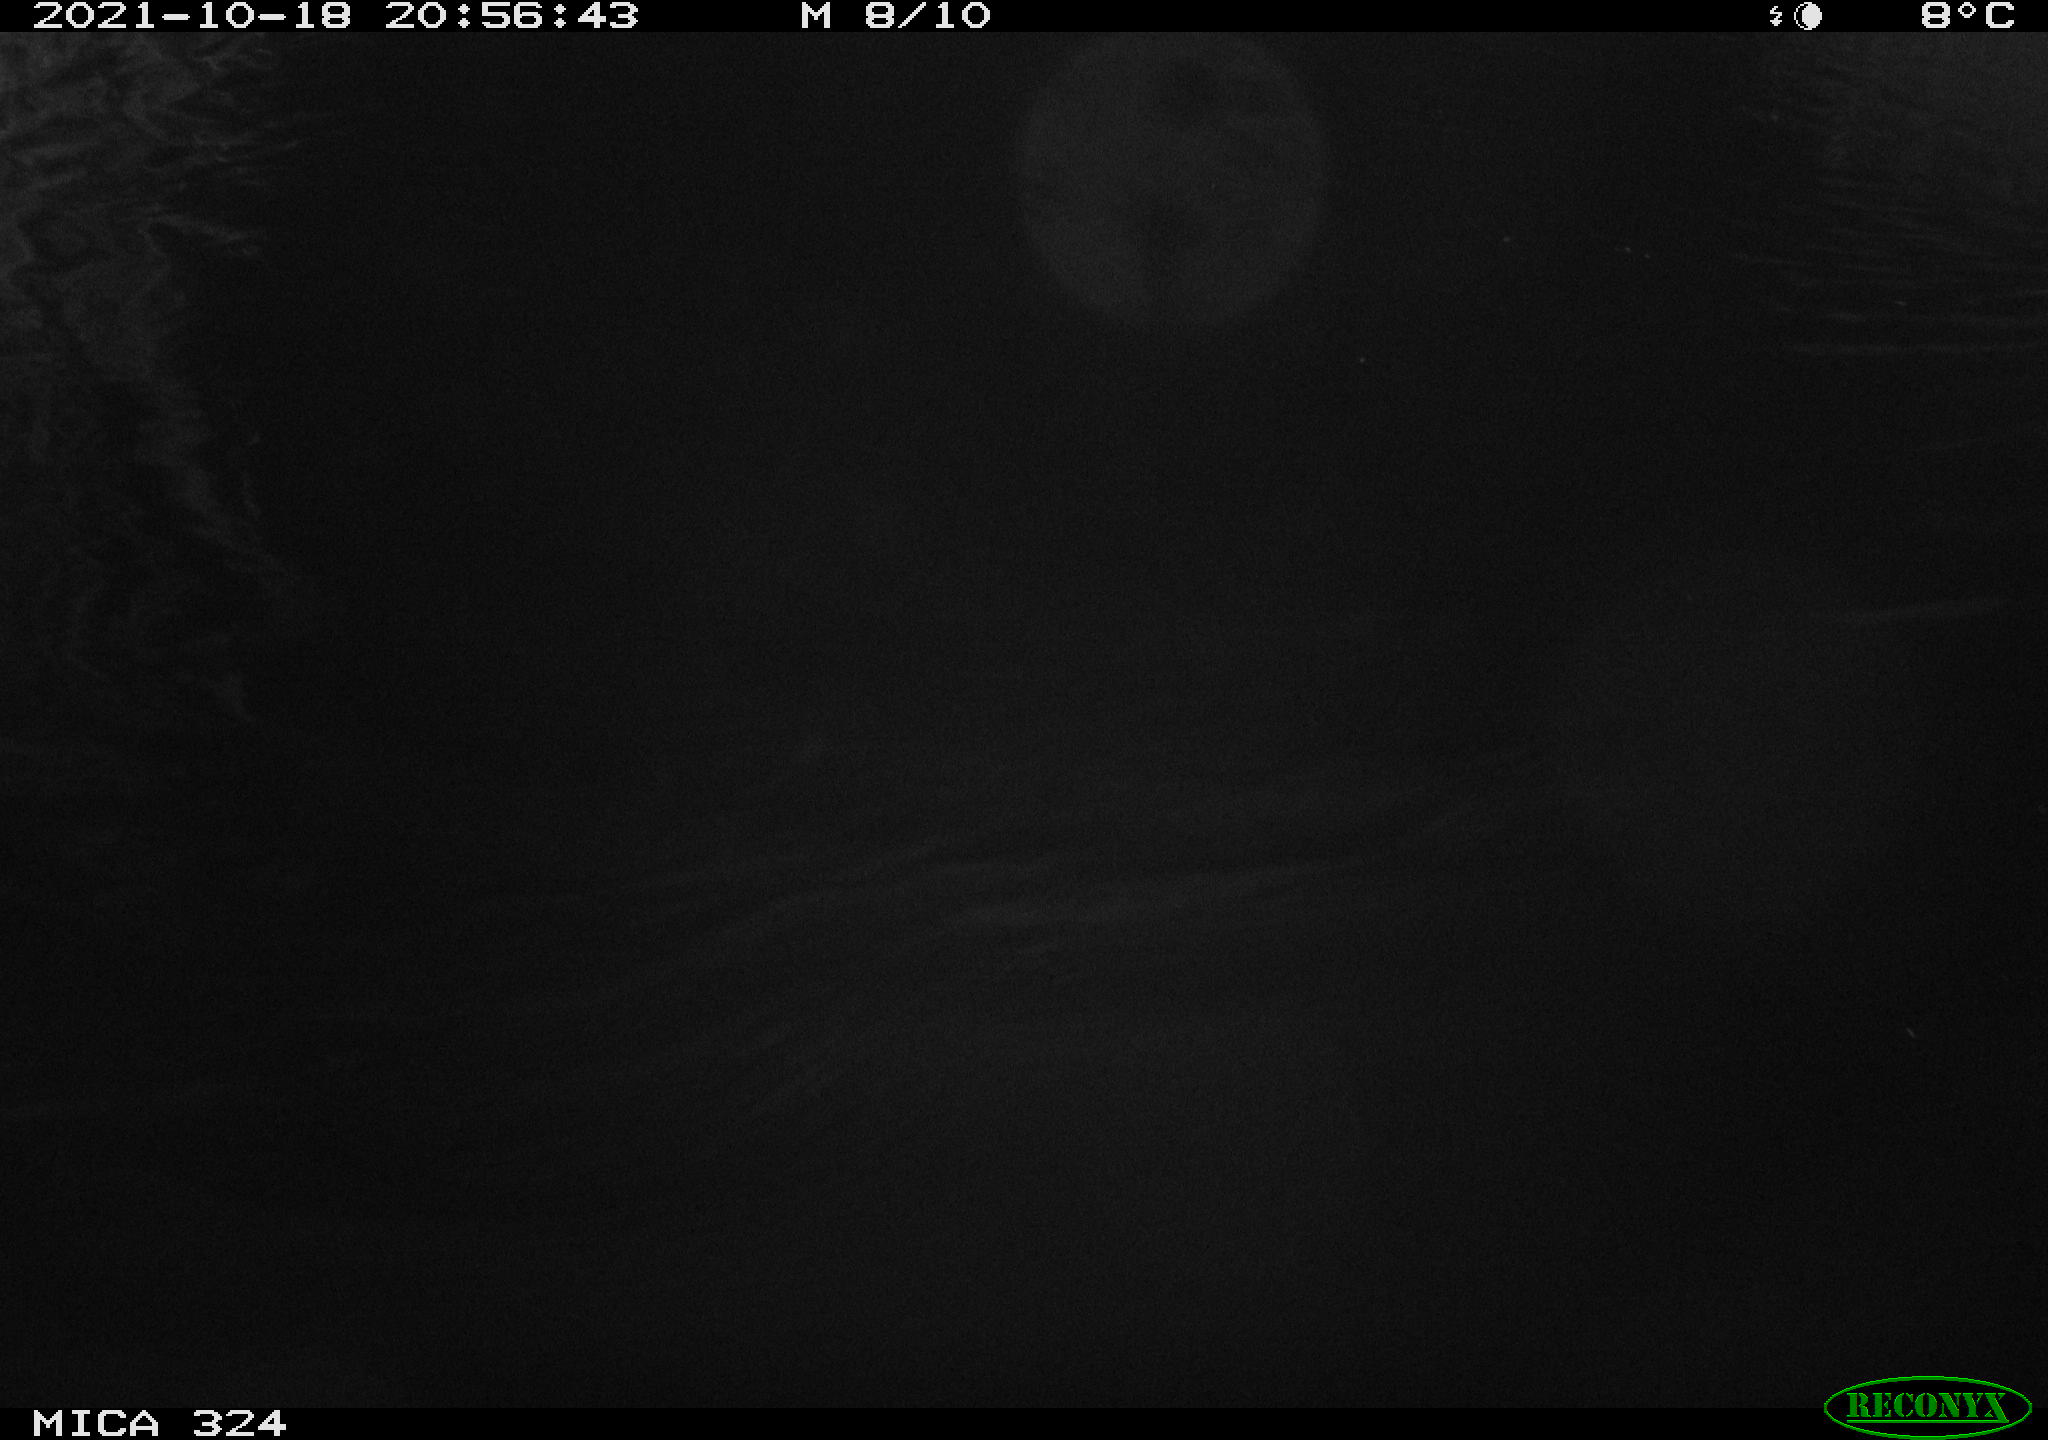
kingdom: Animalia
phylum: Chordata
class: Mammalia
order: Rodentia
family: Cricetidae
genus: Ondatra
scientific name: Ondatra zibethicus
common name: Muskrat
